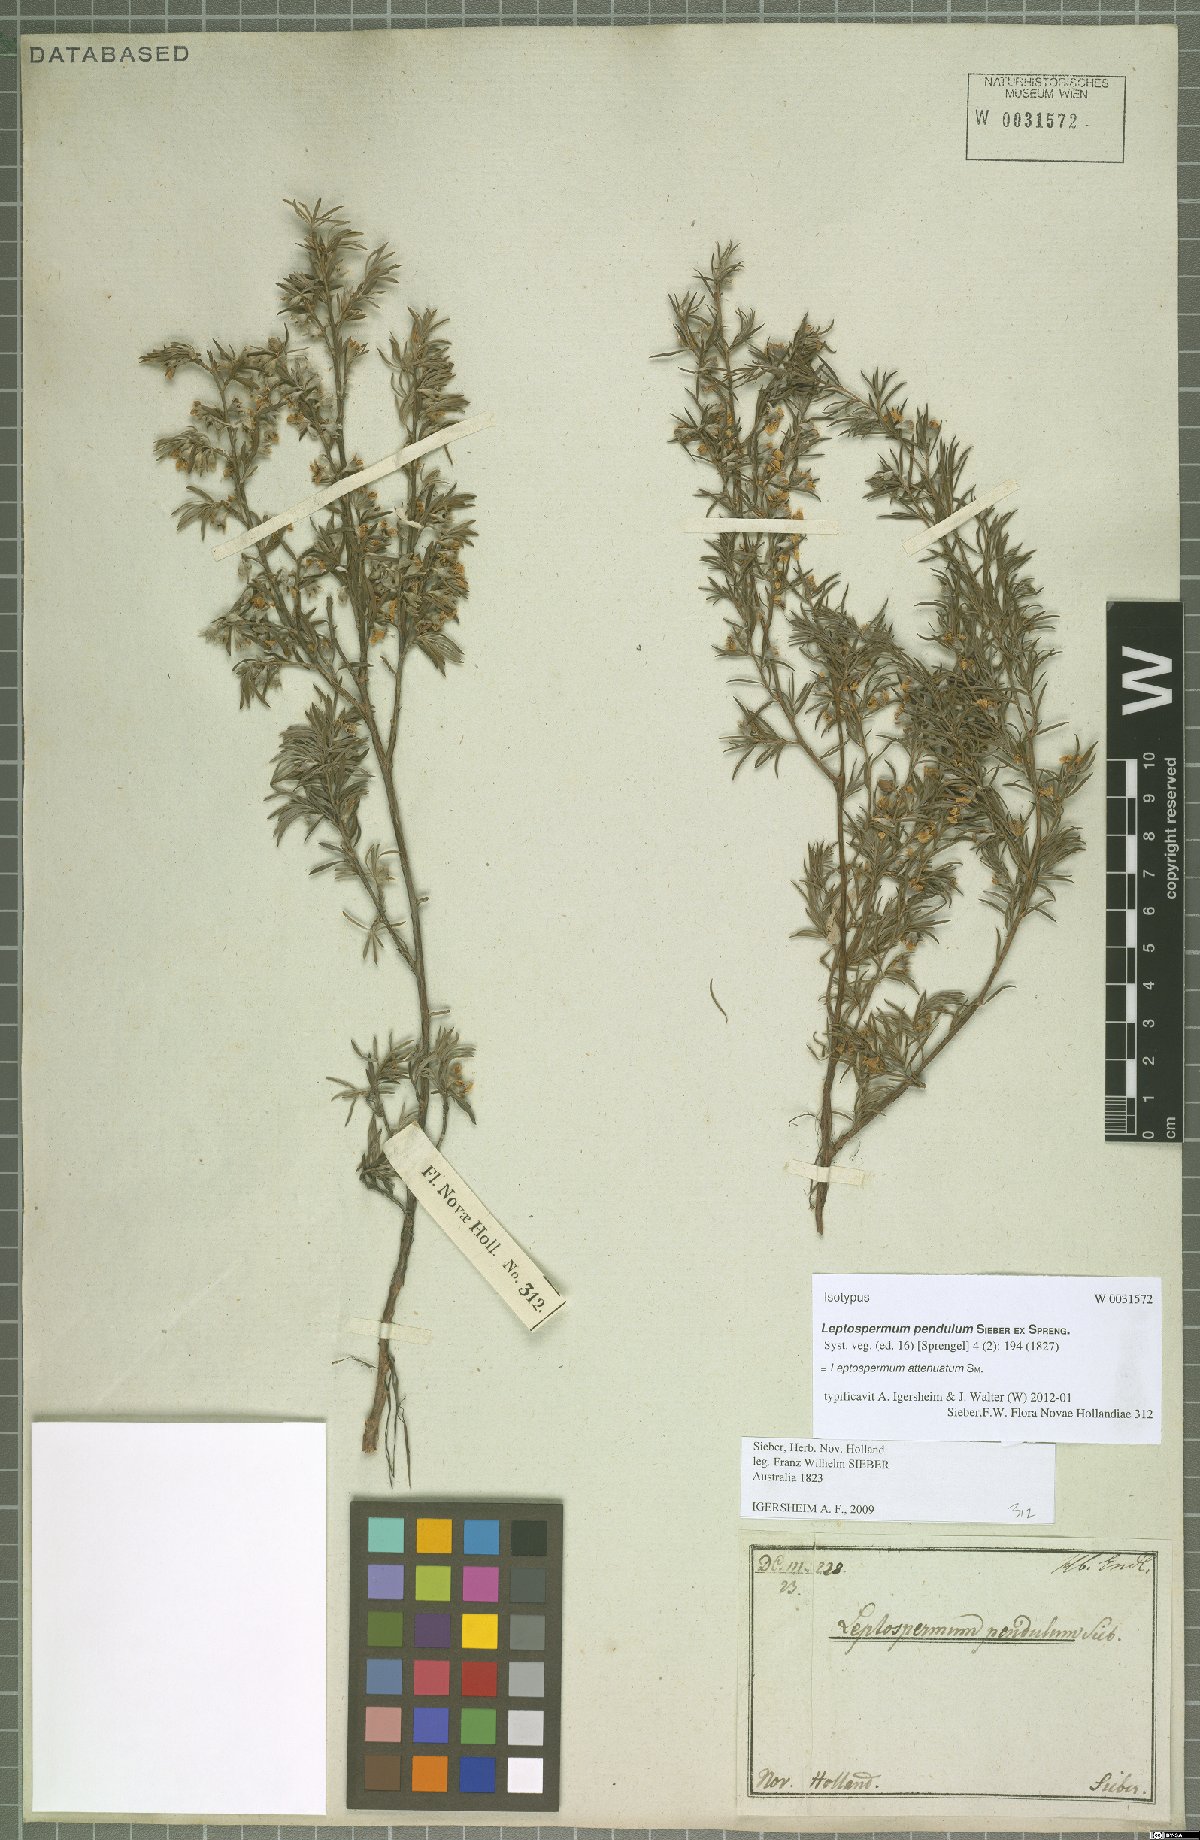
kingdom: Plantae
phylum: Tracheophyta
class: Magnoliopsida
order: Myrtales
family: Myrtaceae
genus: Leptospermum
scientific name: Leptospermum trinervium
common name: Flaky-barked tea-tree
